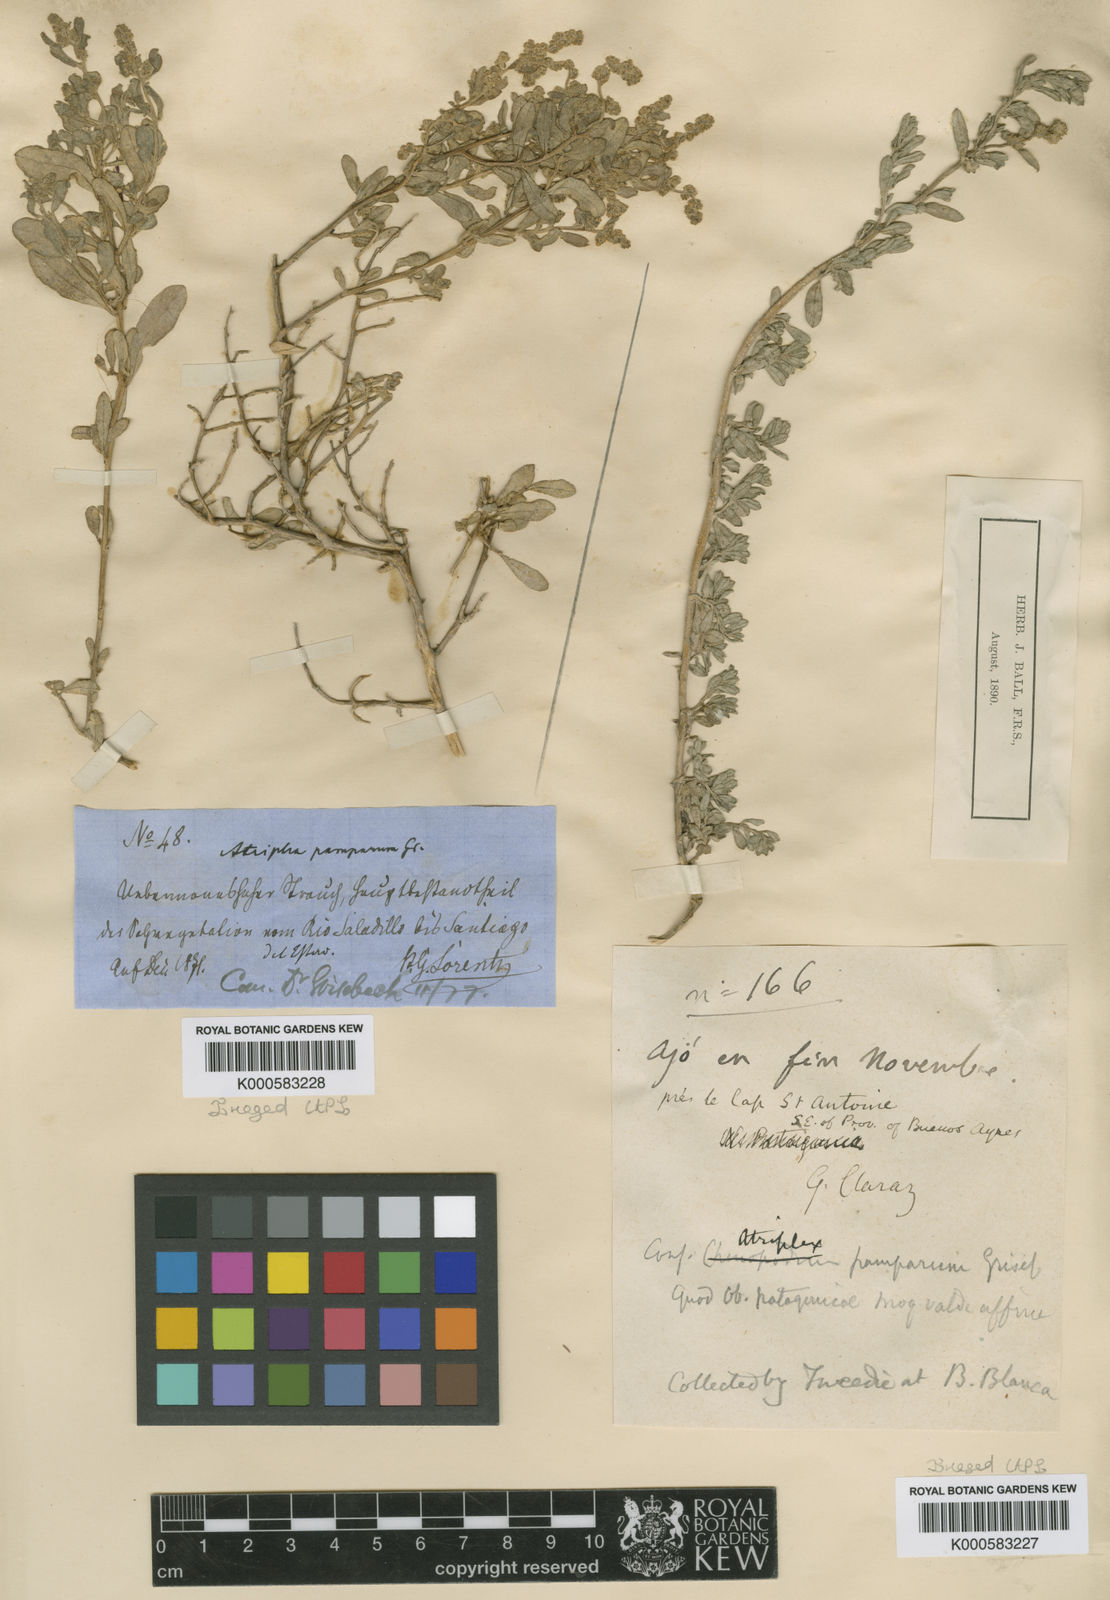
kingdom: Plantae
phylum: Tracheophyta
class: Magnoliopsida
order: Caryophyllales
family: Amaranthaceae
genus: Atriplex
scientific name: Atriplex pamparum
